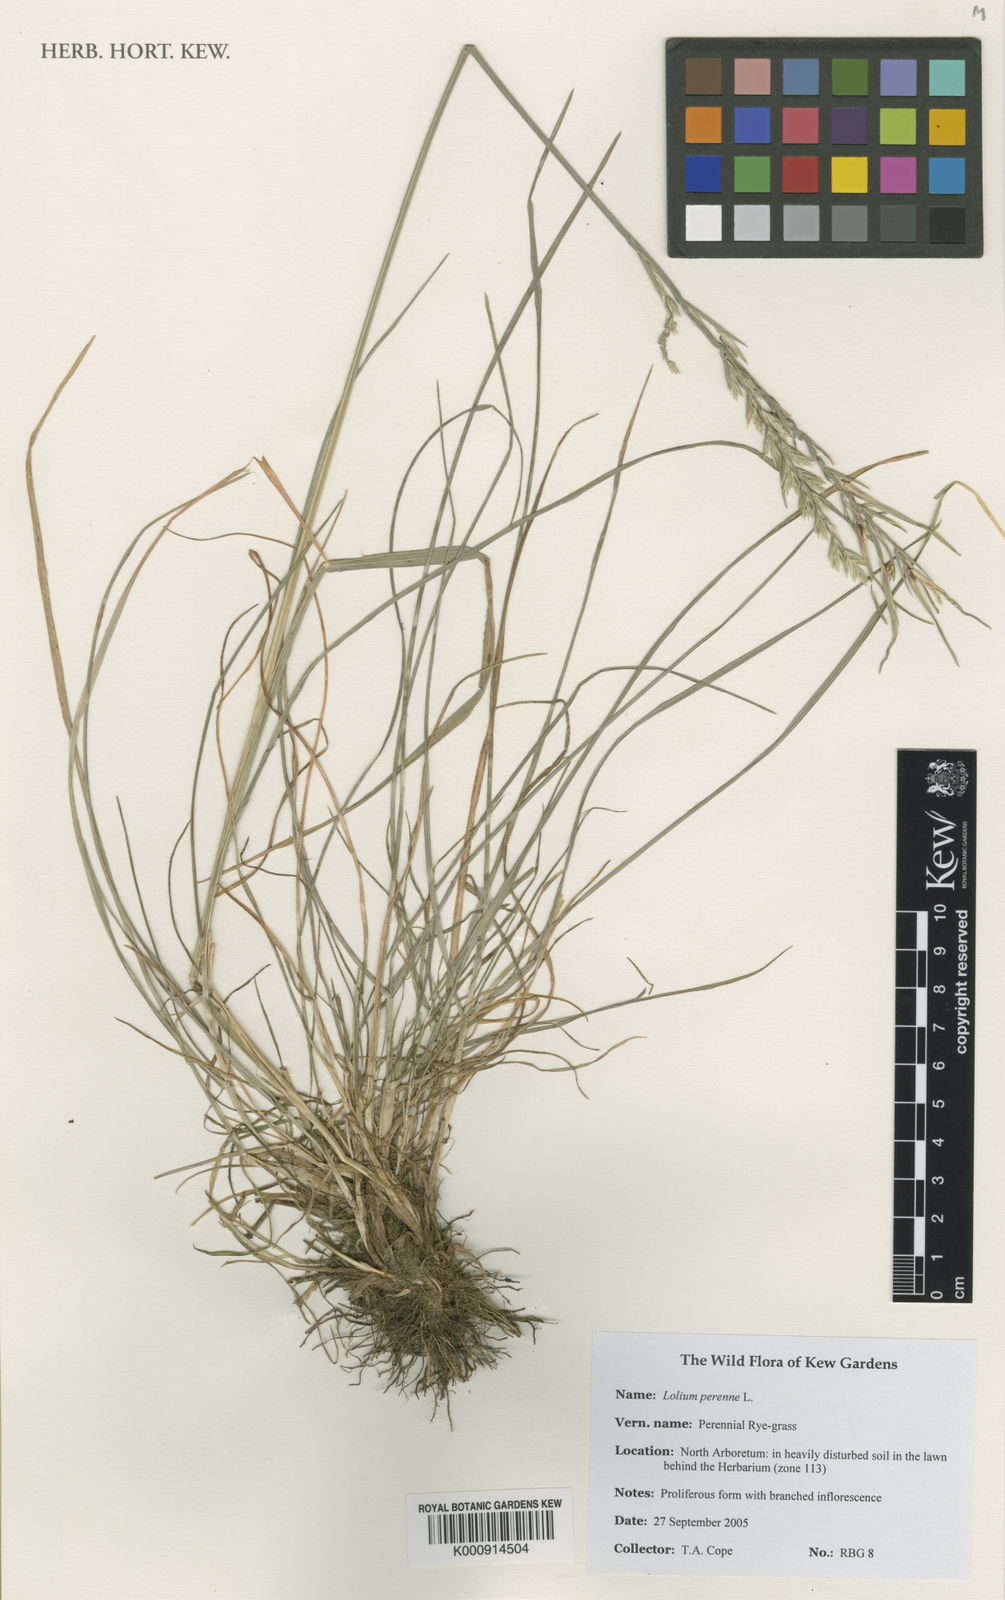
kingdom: Plantae
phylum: Tracheophyta
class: Liliopsida
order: Poales
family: Poaceae
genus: Lolium
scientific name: Lolium perenne
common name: Perennial ryegrass
